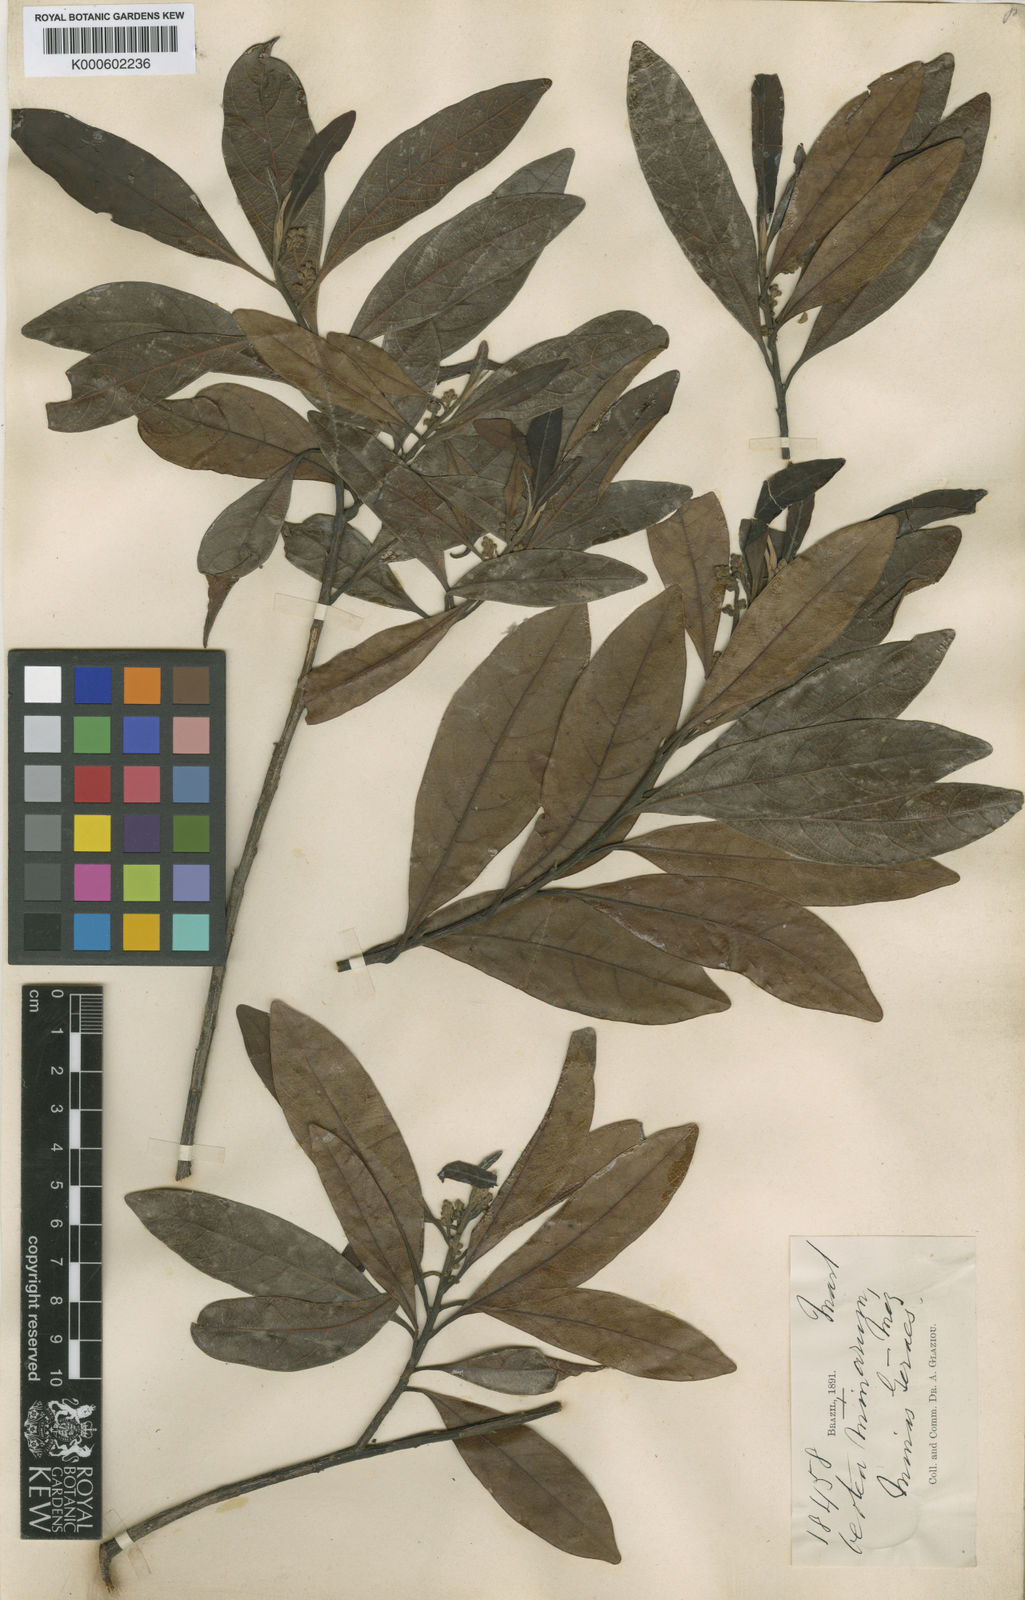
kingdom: Plantae
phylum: Tracheophyta
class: Magnoliopsida
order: Laurales
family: Lauraceae
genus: Ocotea
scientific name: Ocotea minarum
